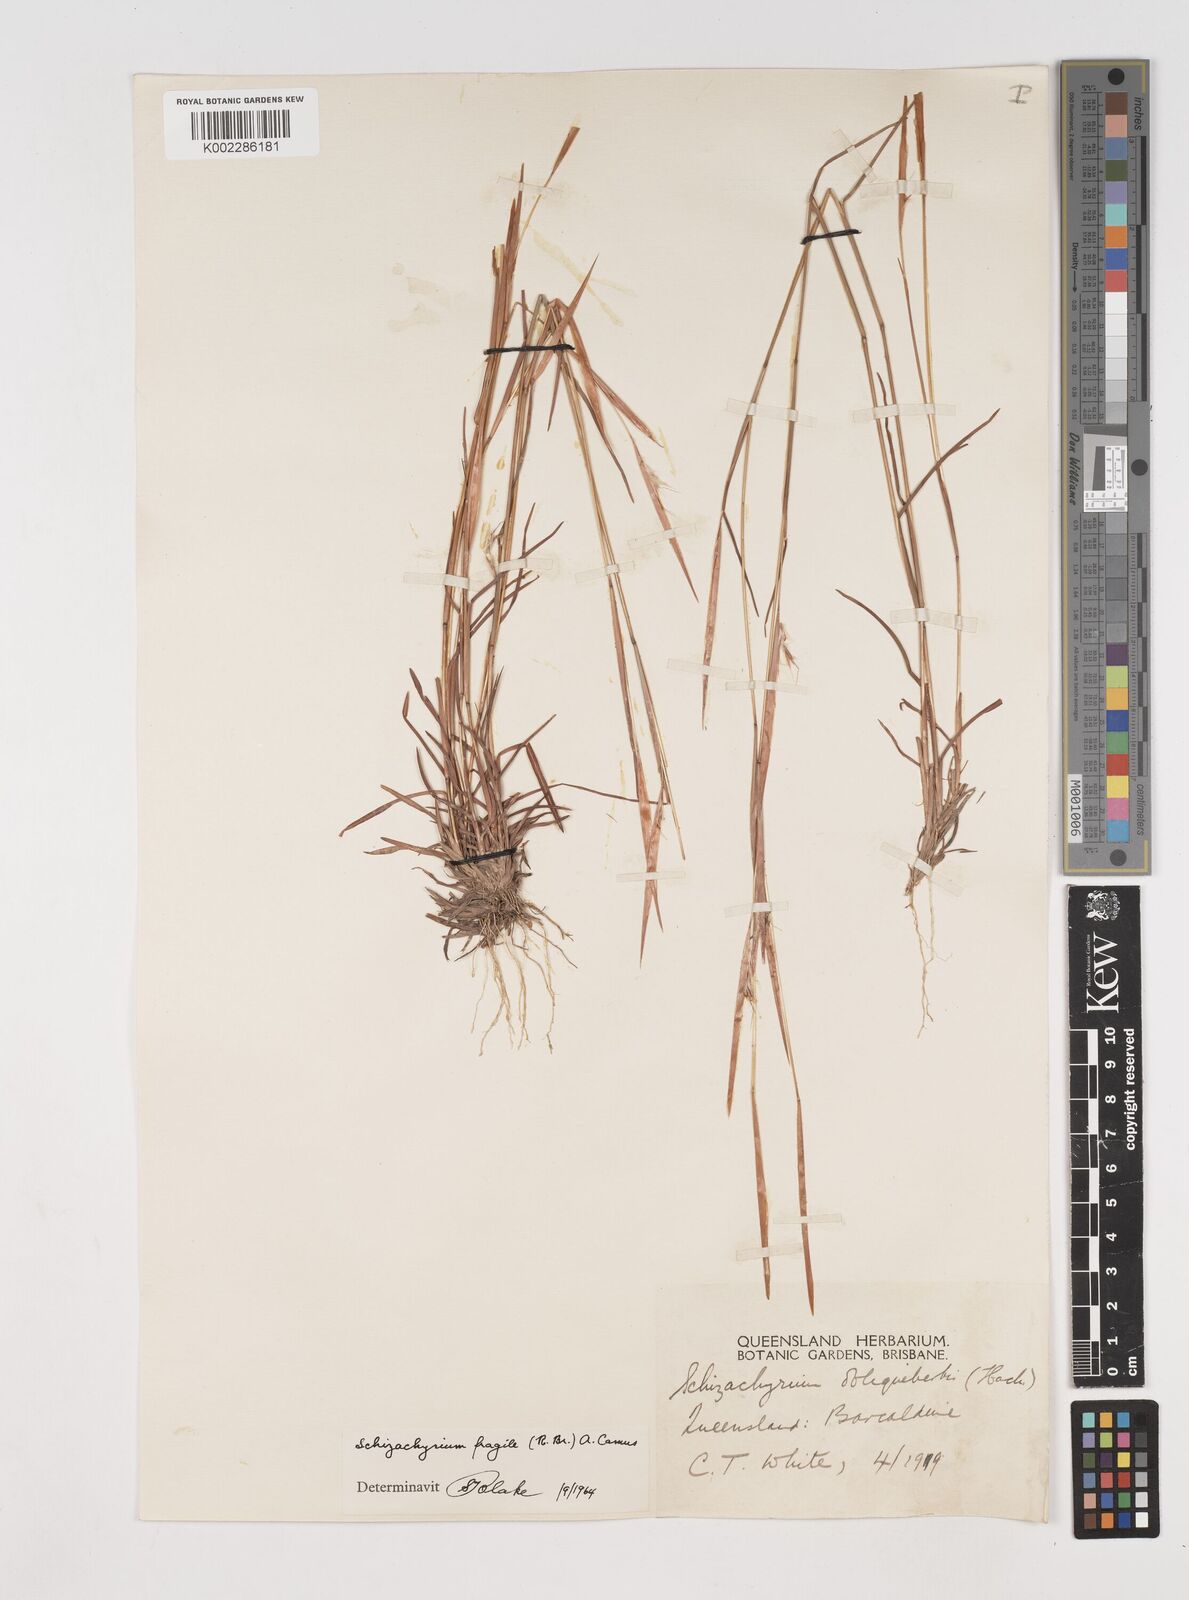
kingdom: Plantae
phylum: Tracheophyta
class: Liliopsida
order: Poales
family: Poaceae
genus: Schizachyrium
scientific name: Schizachyrium fragile
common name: Red spathe grass
